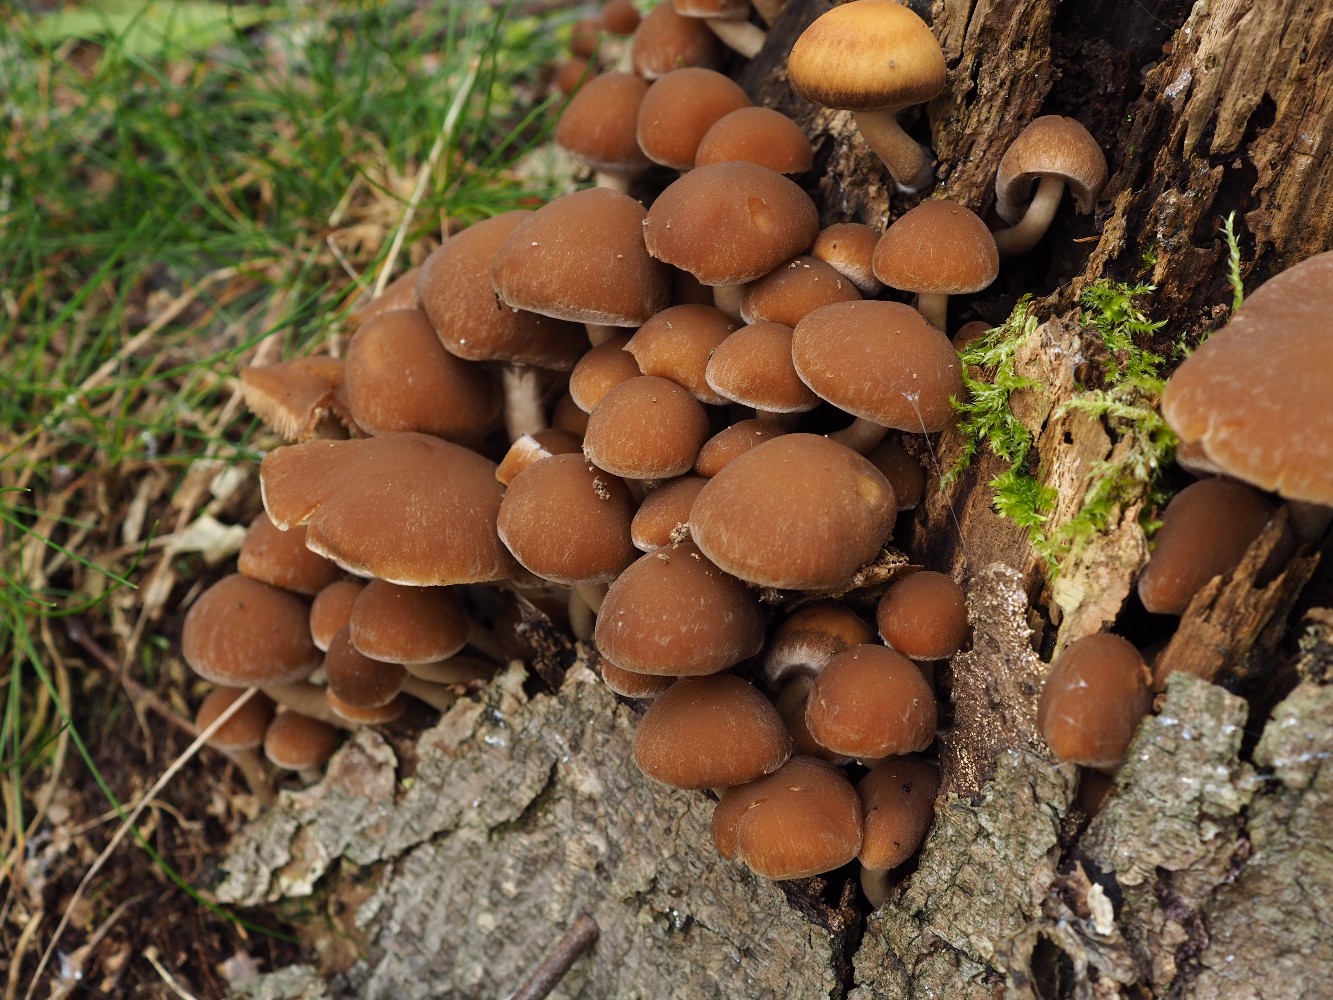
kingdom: Fungi
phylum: Basidiomycota
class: Agaricomycetes
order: Agaricales
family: Psathyrellaceae
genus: Psathyrella
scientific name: Psathyrella piluliformis
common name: lysstokket mørkhat
